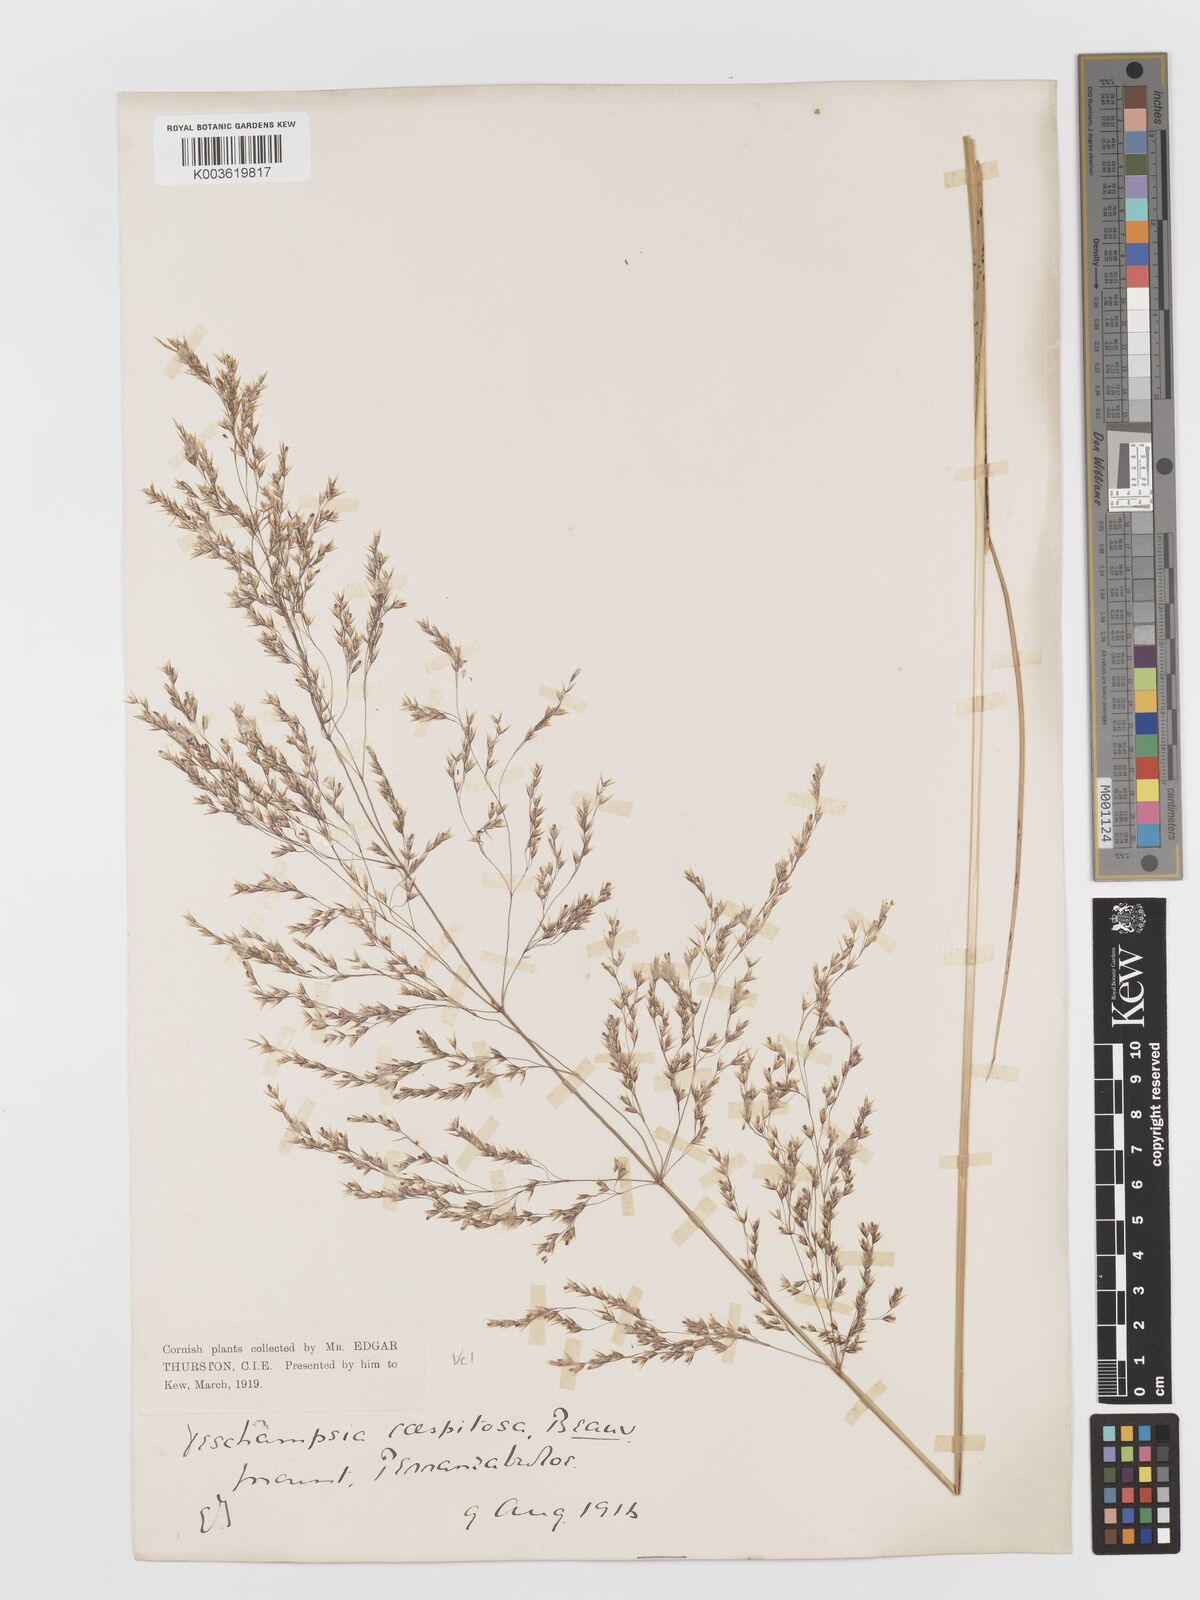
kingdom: Plantae
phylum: Tracheophyta
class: Liliopsida
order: Poales
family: Poaceae
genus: Deschampsia
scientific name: Deschampsia cespitosa
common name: Tufted hair-grass
